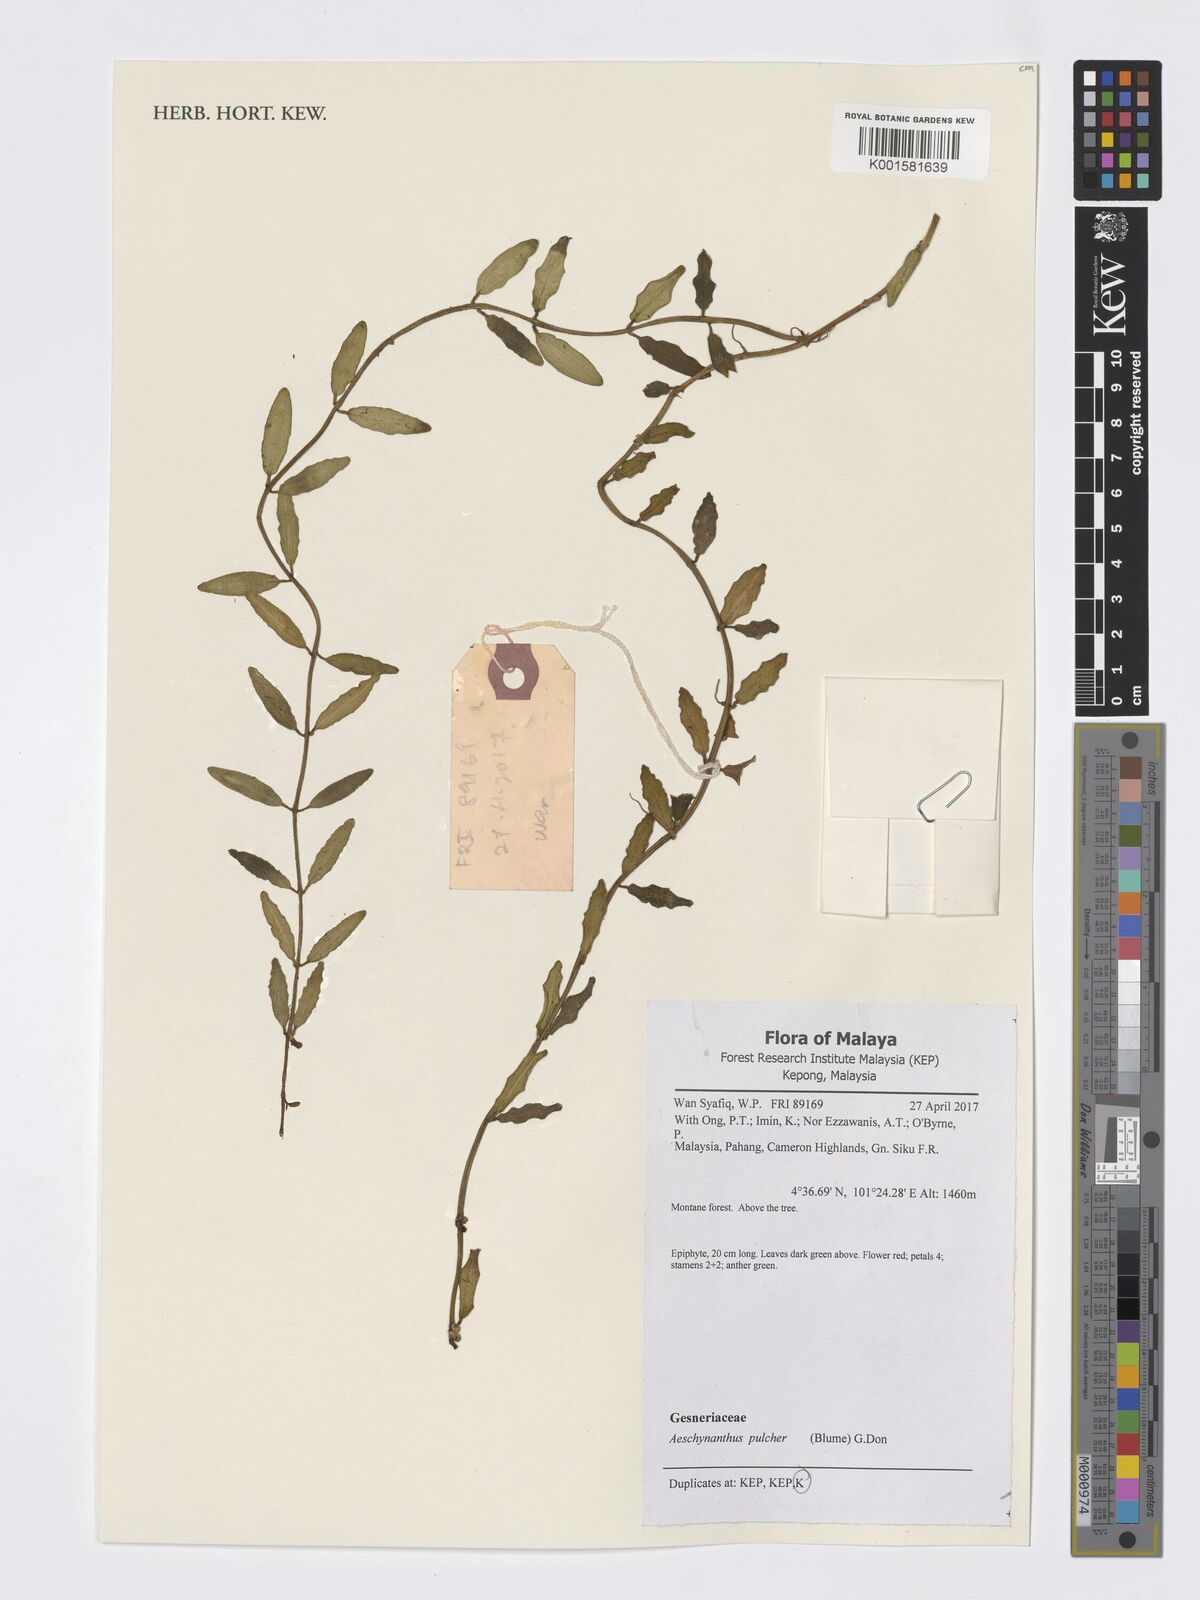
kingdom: Plantae
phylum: Tracheophyta
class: Magnoliopsida
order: Lamiales
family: Gesneriaceae
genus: Aeschynanthus
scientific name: Aeschynanthus pulcher
